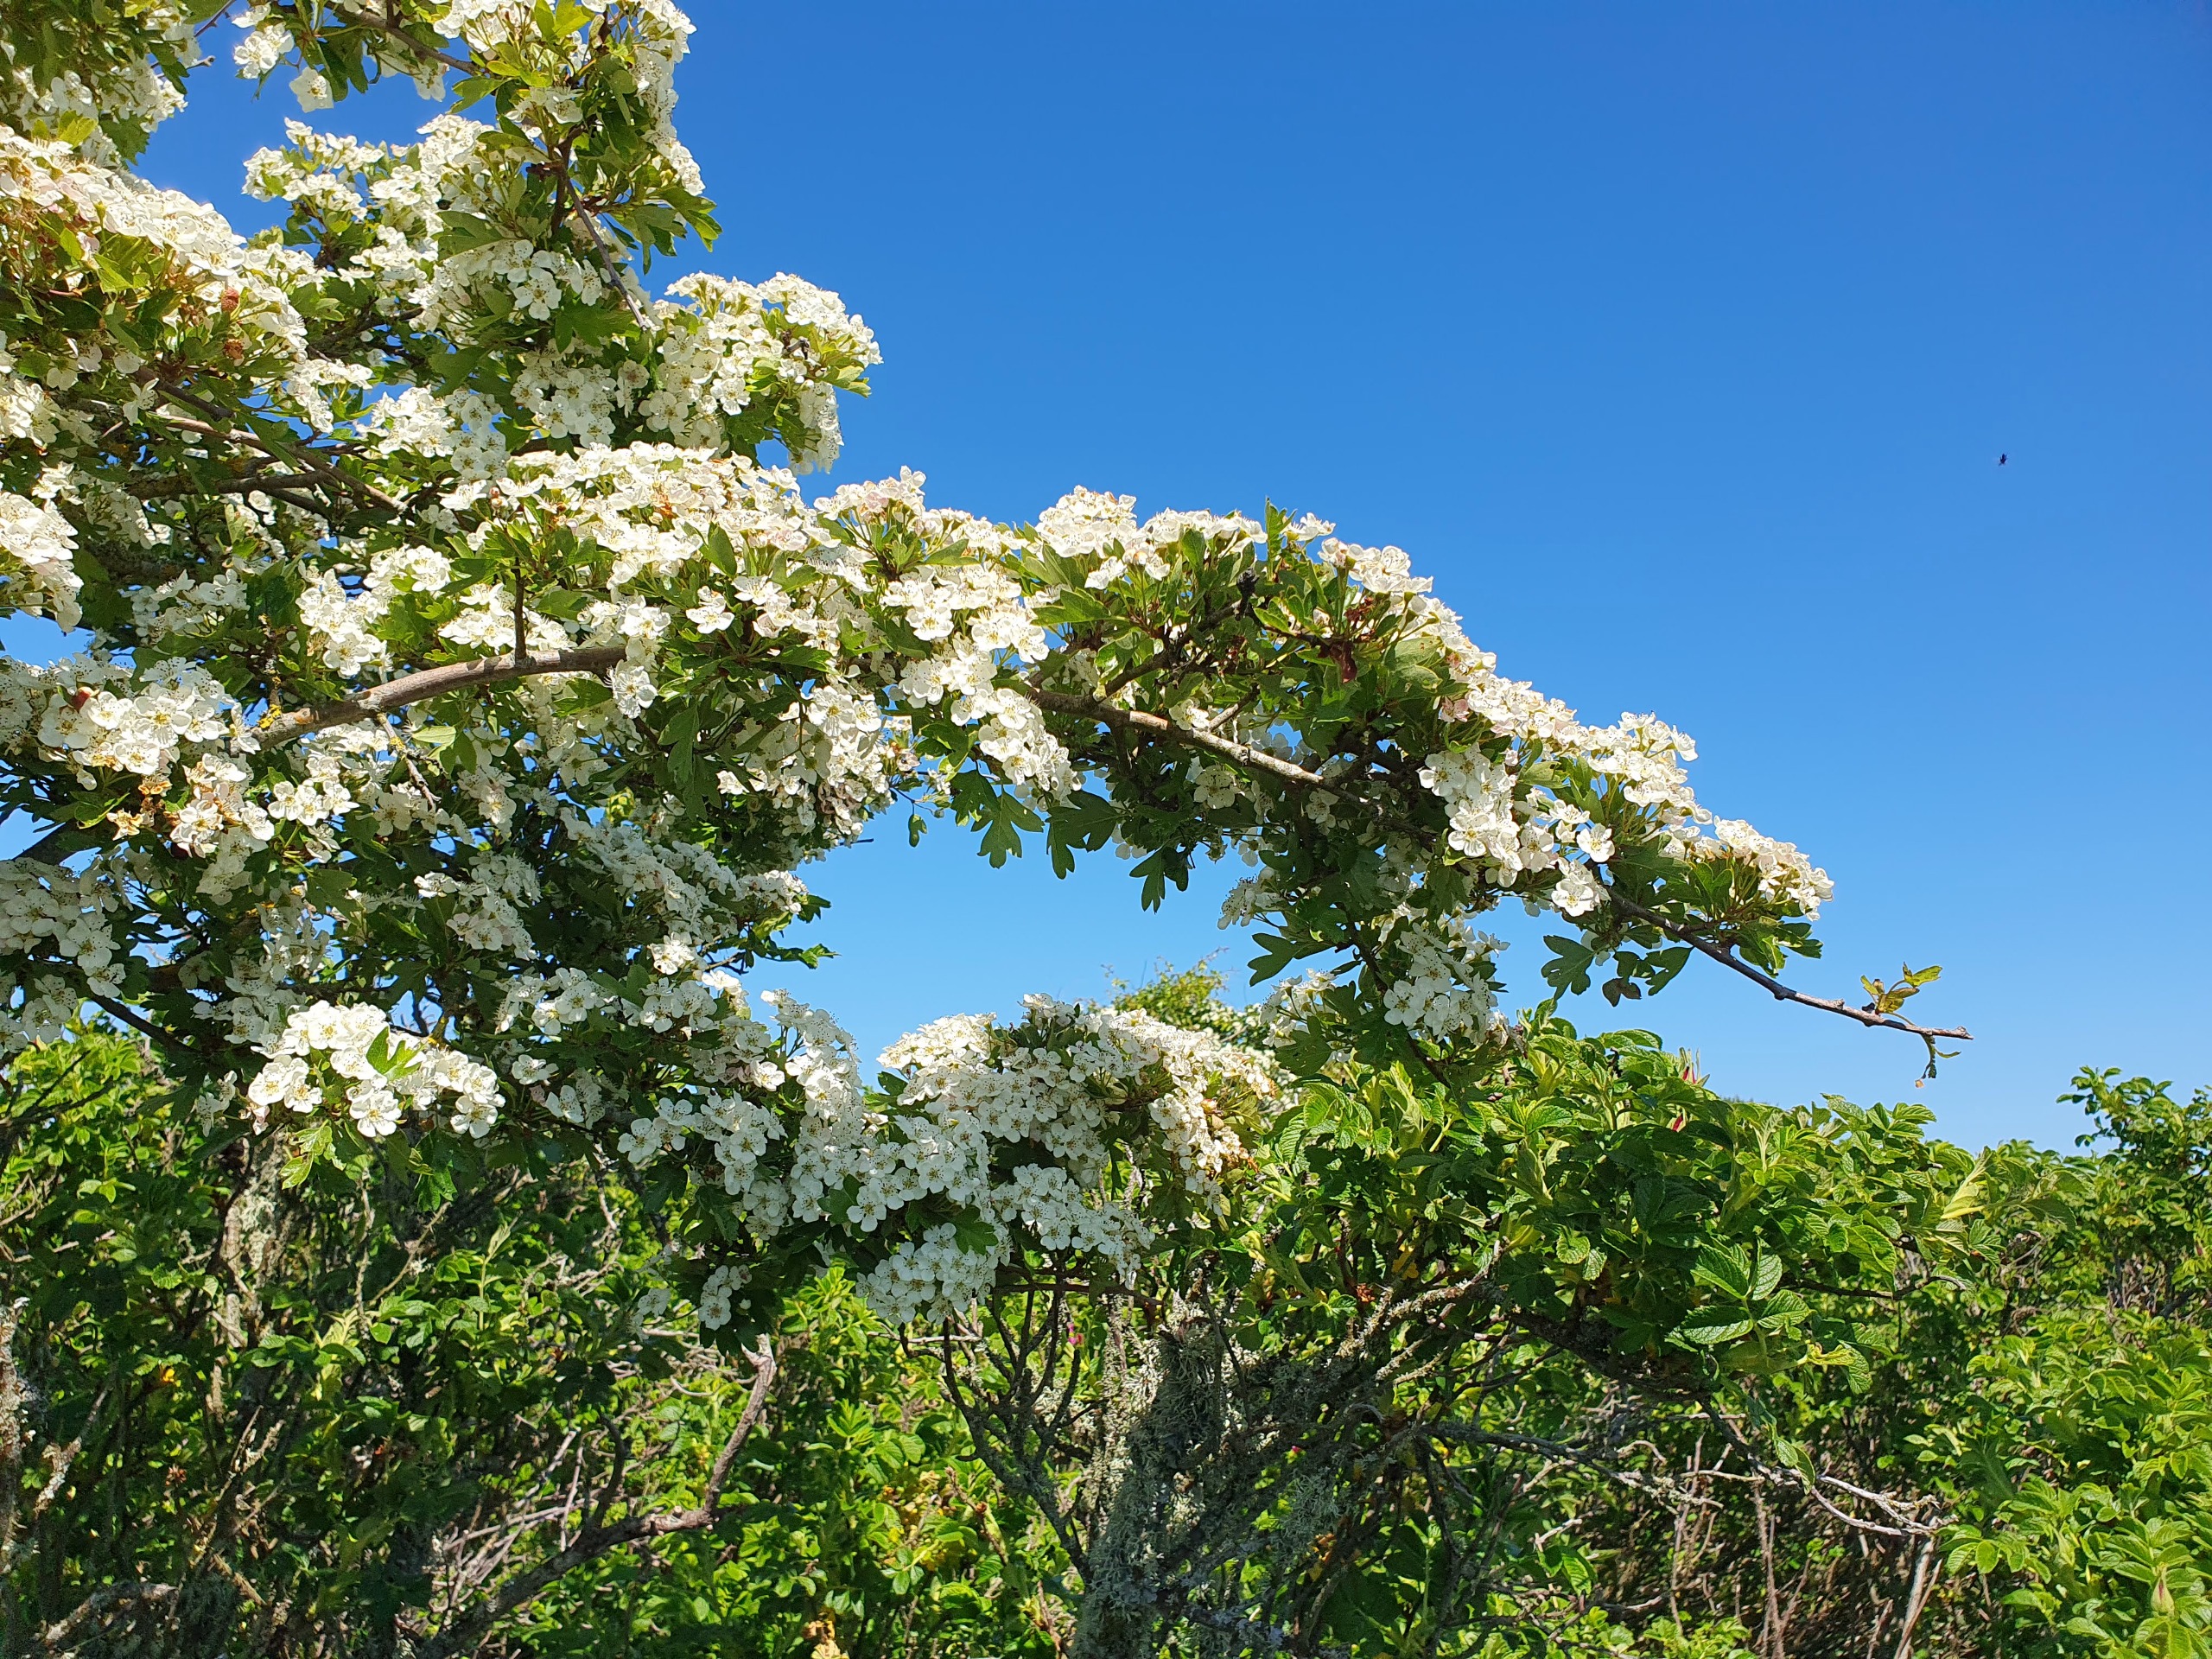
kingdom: Plantae
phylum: Tracheophyta
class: Magnoliopsida
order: Rosales
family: Rosaceae
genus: Crataegus
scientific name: Crataegus monogyna
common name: Engriflet hvidtjørn
